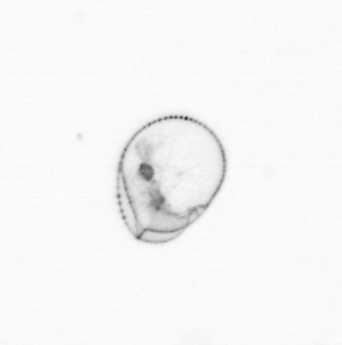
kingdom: Chromista
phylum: Myzozoa
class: Dinophyceae
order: Noctilucales
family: Noctilucaceae
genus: Noctiluca
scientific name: Noctiluca scintillans
